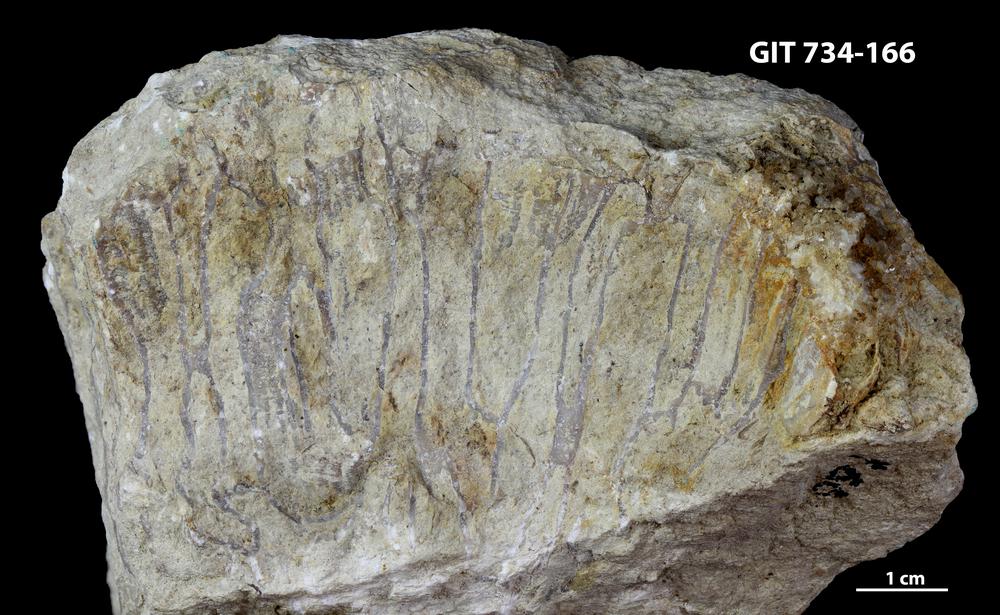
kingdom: Animalia
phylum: Cnidaria
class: Anthozoa
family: Cateniporidae
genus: Catenipora
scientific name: Catenipora
